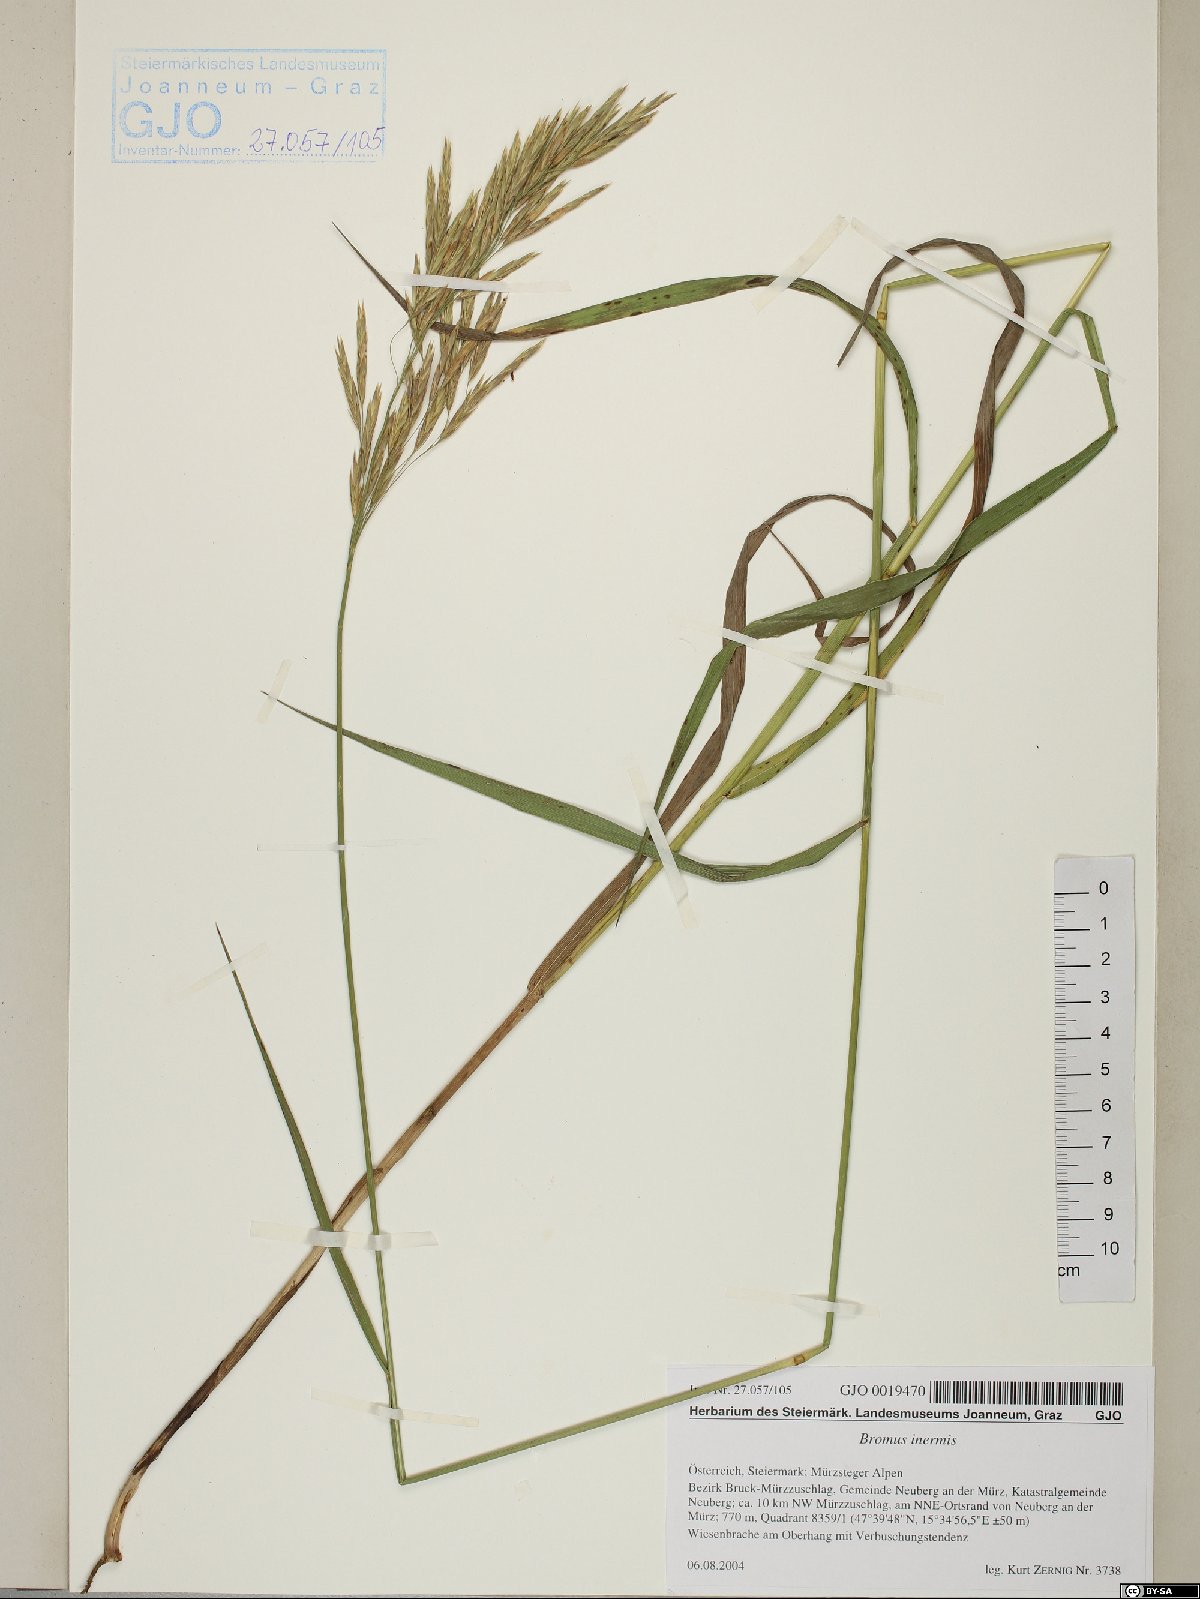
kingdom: Plantae
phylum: Tracheophyta
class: Liliopsida
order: Poales
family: Poaceae
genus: Bromus
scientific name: Bromus inermis
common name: Smooth brome
